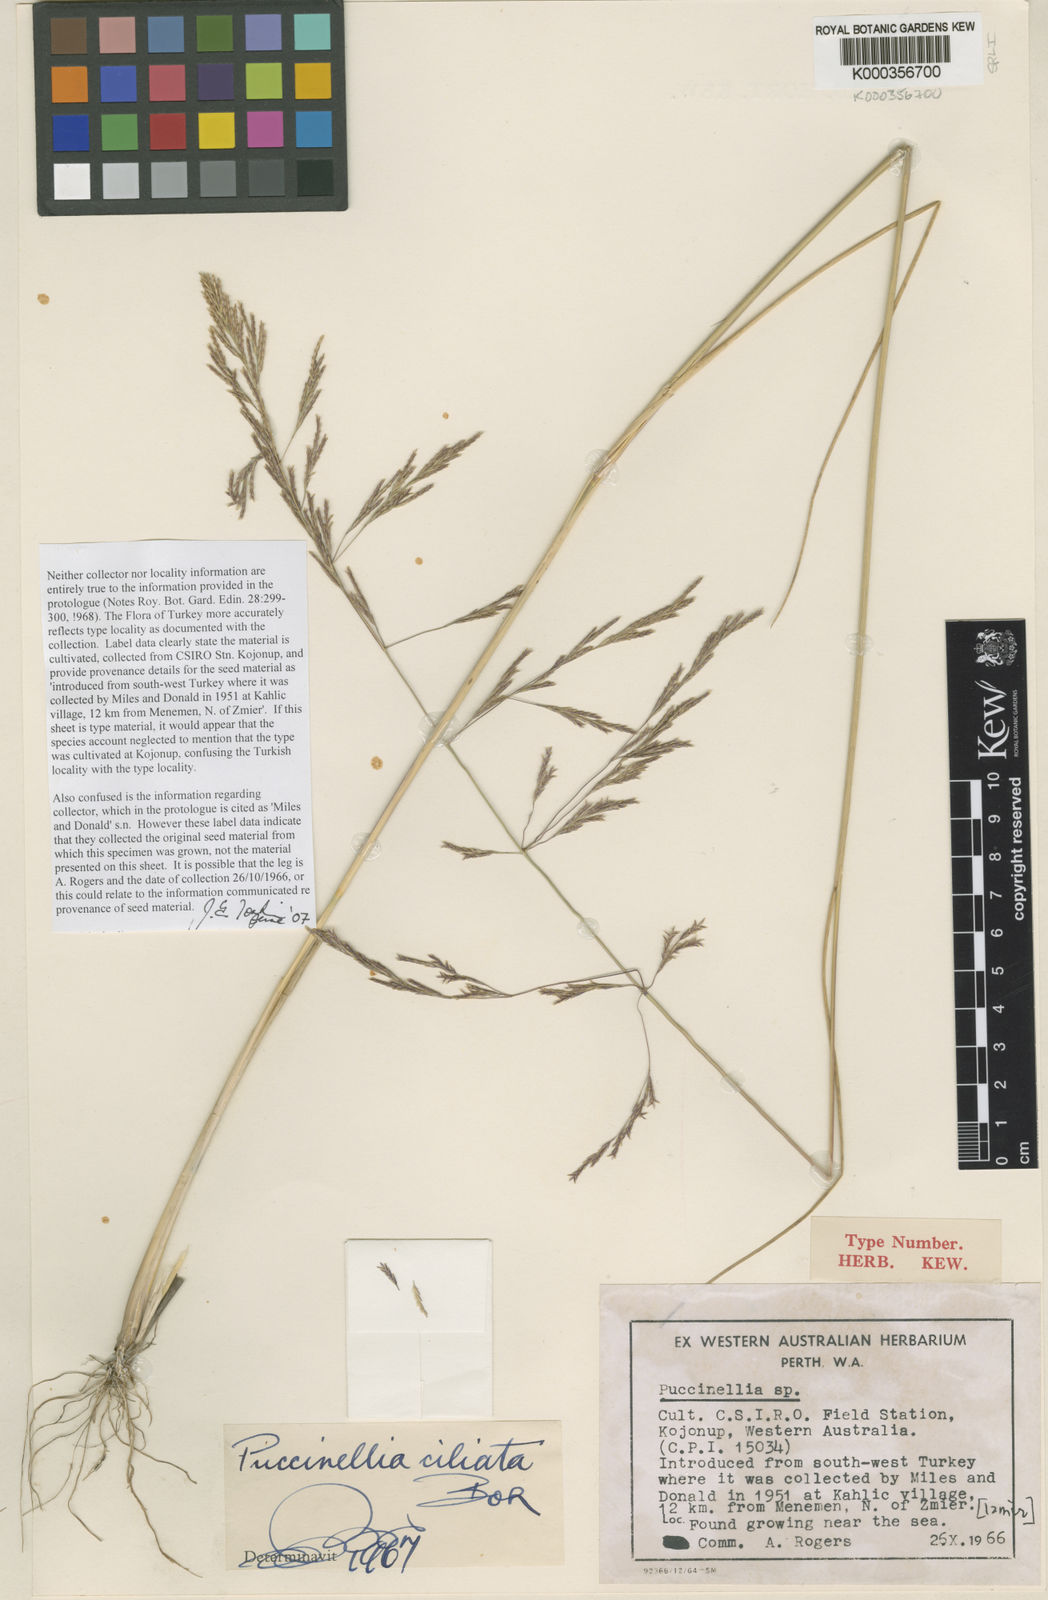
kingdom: Plantae
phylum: Tracheophyta
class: Liliopsida
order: Poales
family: Poaceae
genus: Puccinellia
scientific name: Puccinellia ciliata
